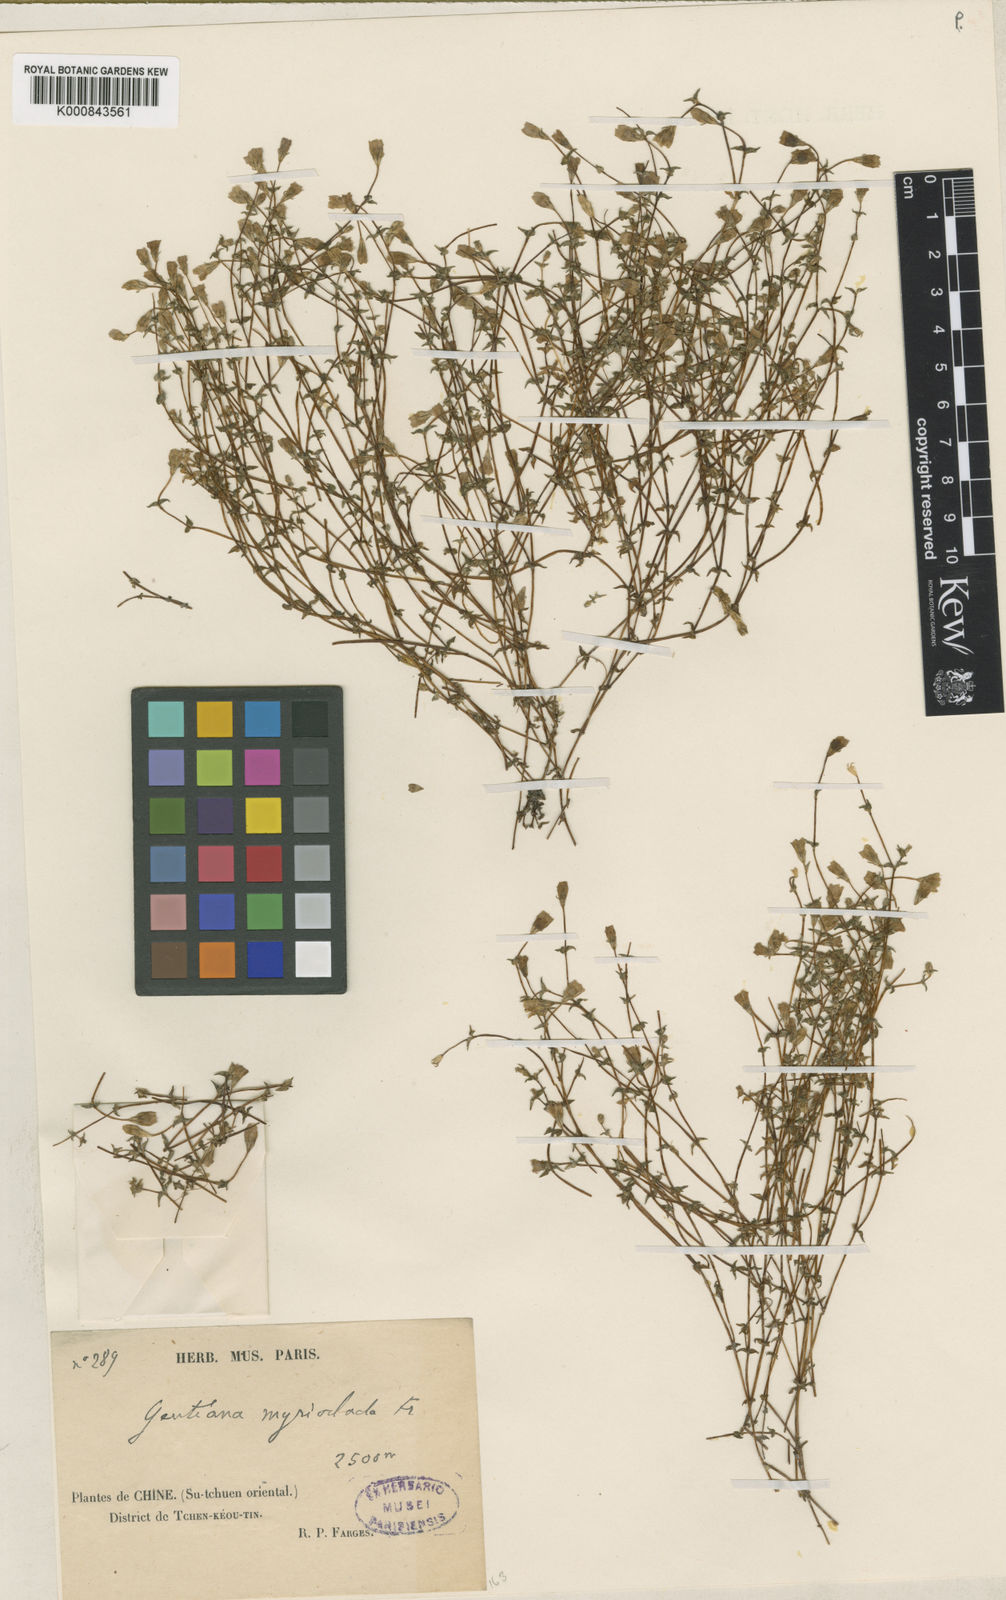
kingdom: Plantae
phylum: Tracheophyta
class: Magnoliopsida
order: Gentianales
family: Gentianaceae
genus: Gentiana
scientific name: Gentiana myrioclada
